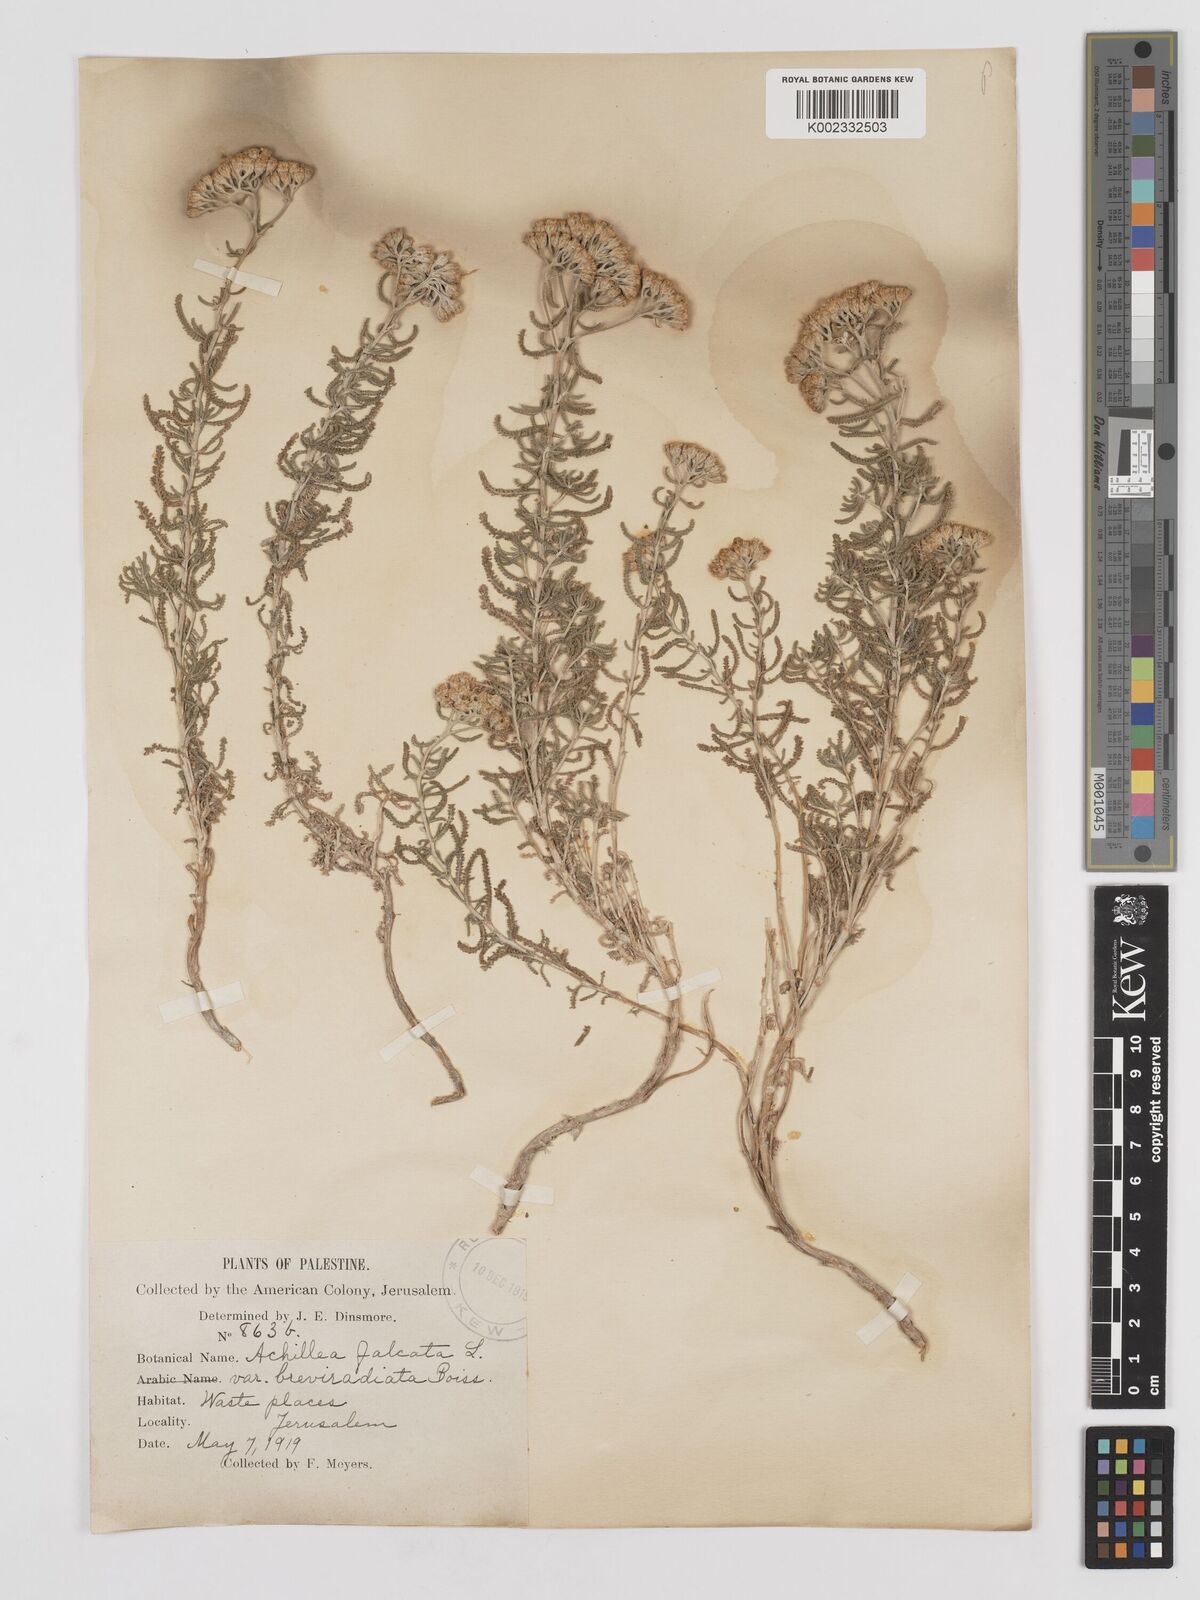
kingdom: Plantae
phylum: Tracheophyta
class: Magnoliopsida
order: Asterales
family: Asteraceae
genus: Achillea
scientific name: Achillea tenuifolia
